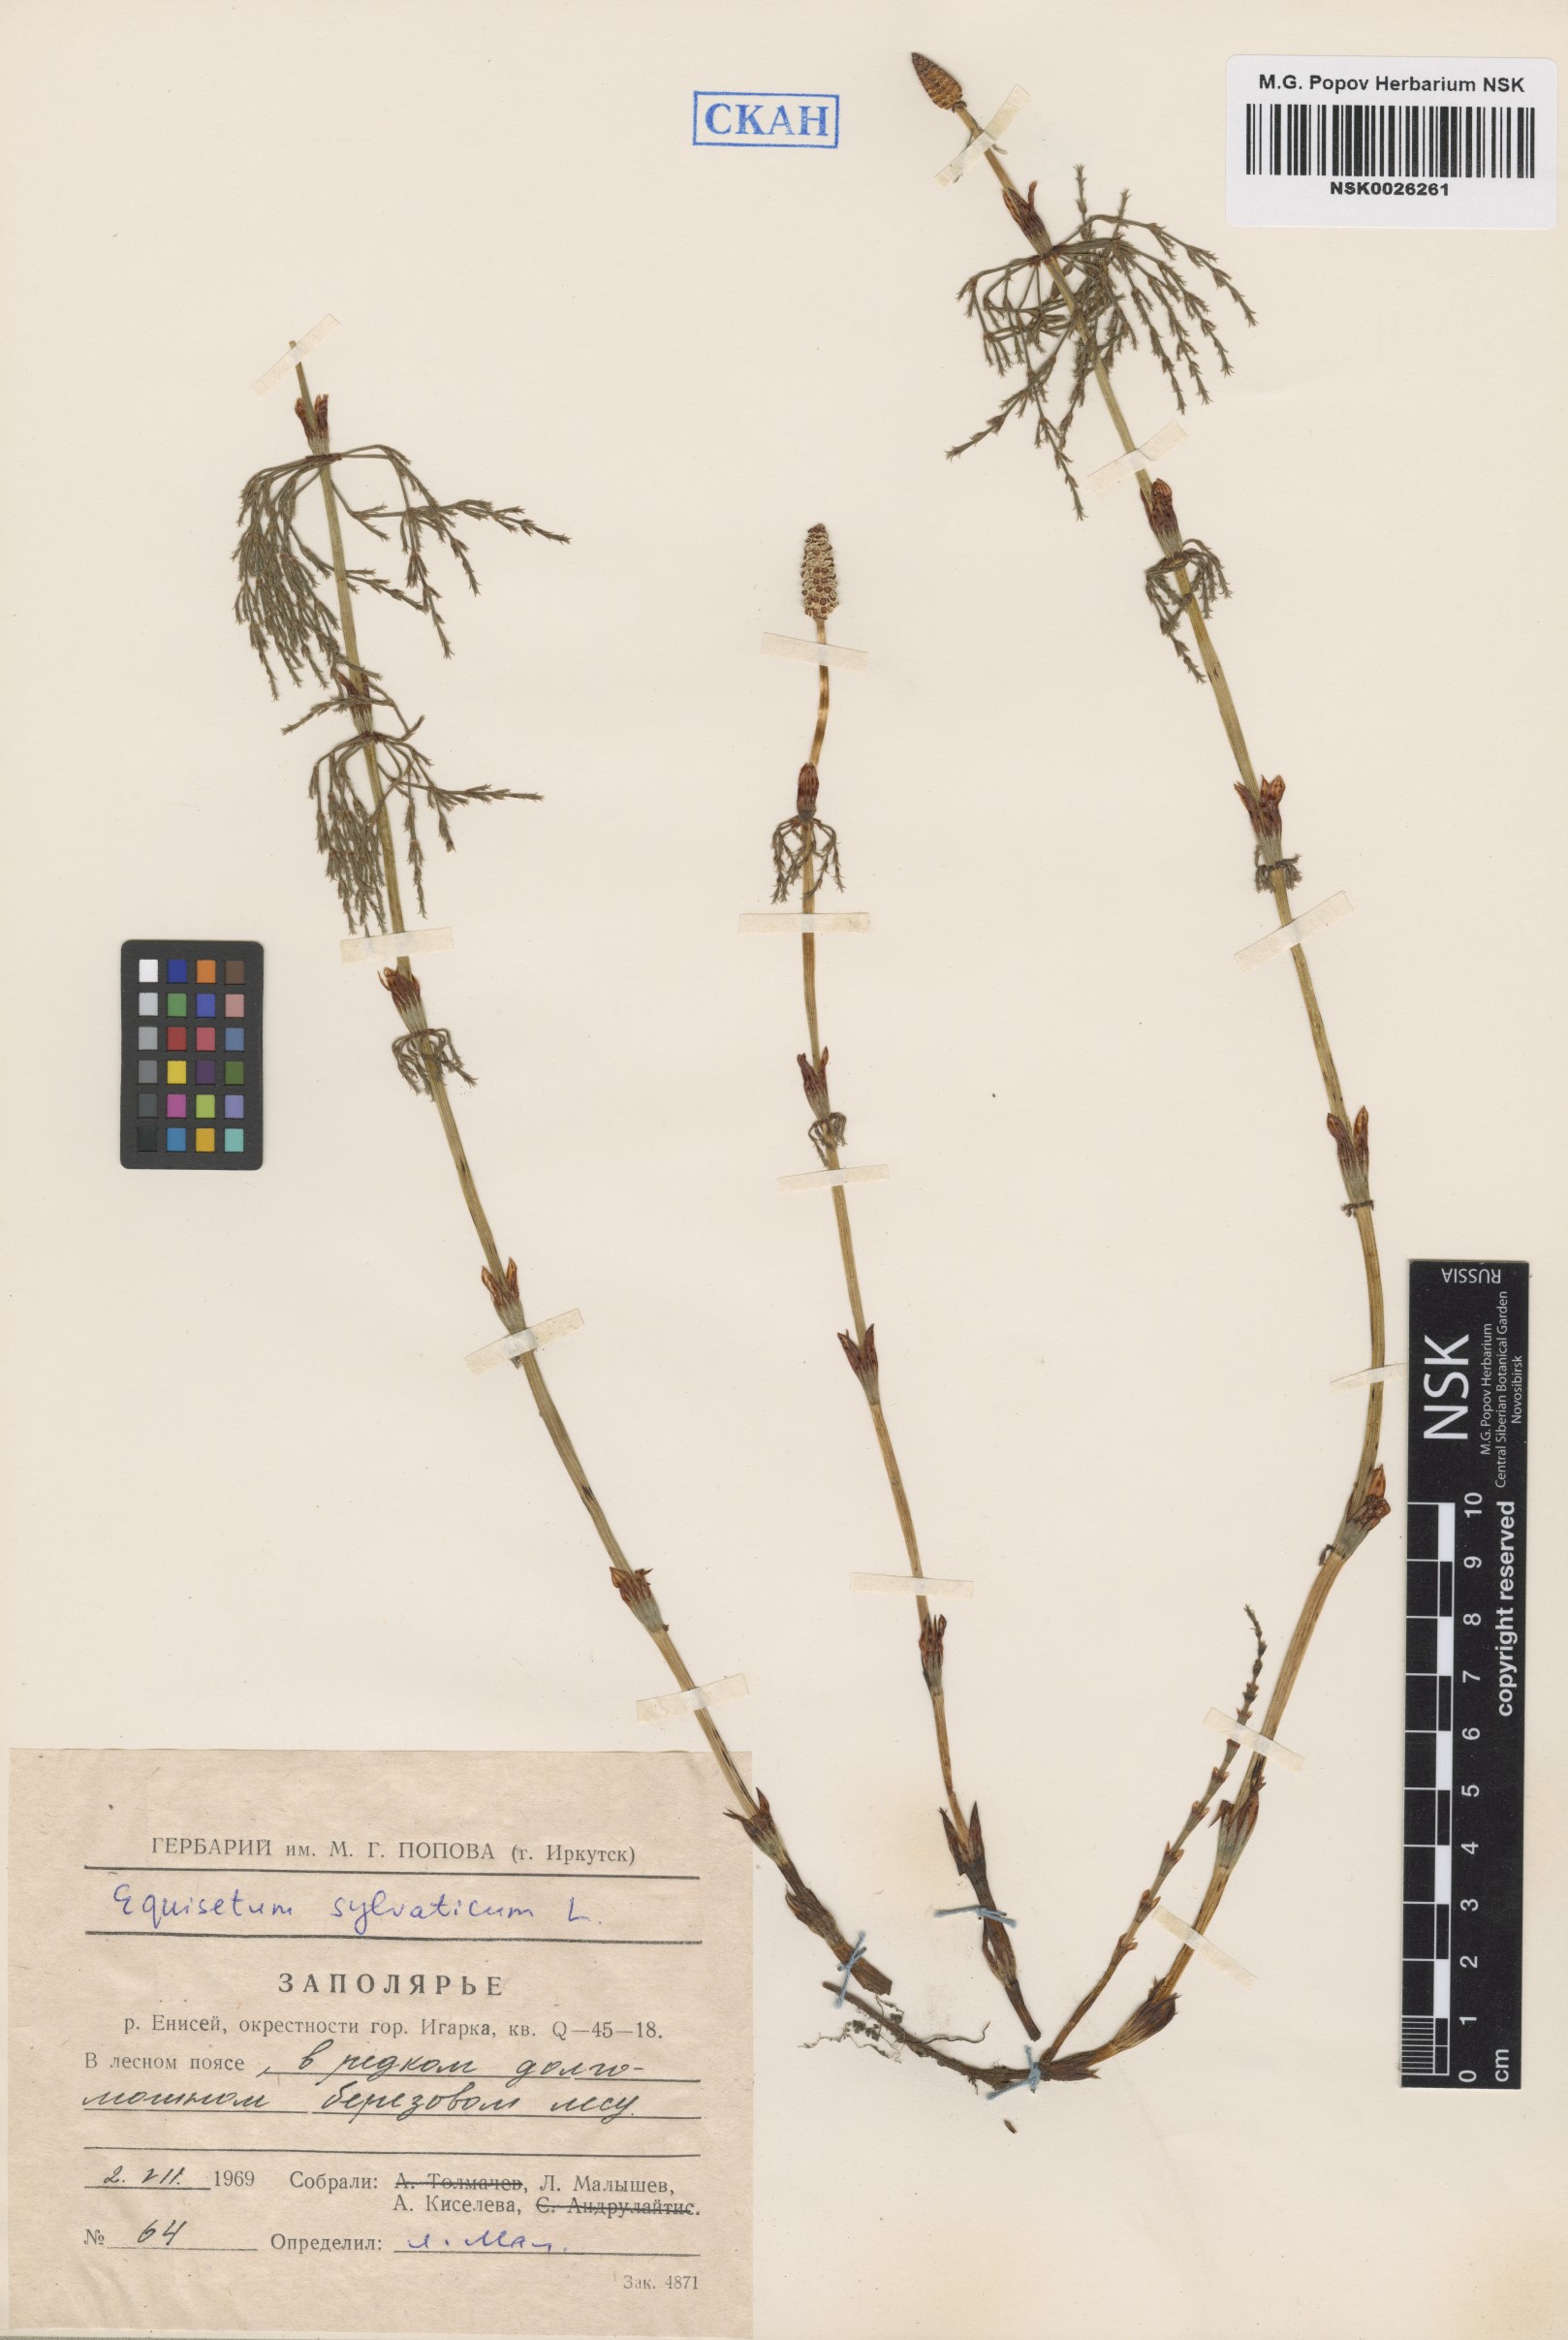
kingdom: Plantae
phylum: Tracheophyta
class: Polypodiopsida
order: Equisetales
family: Equisetaceae
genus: Equisetum
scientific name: Equisetum sylvaticum
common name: Wood horsetail
